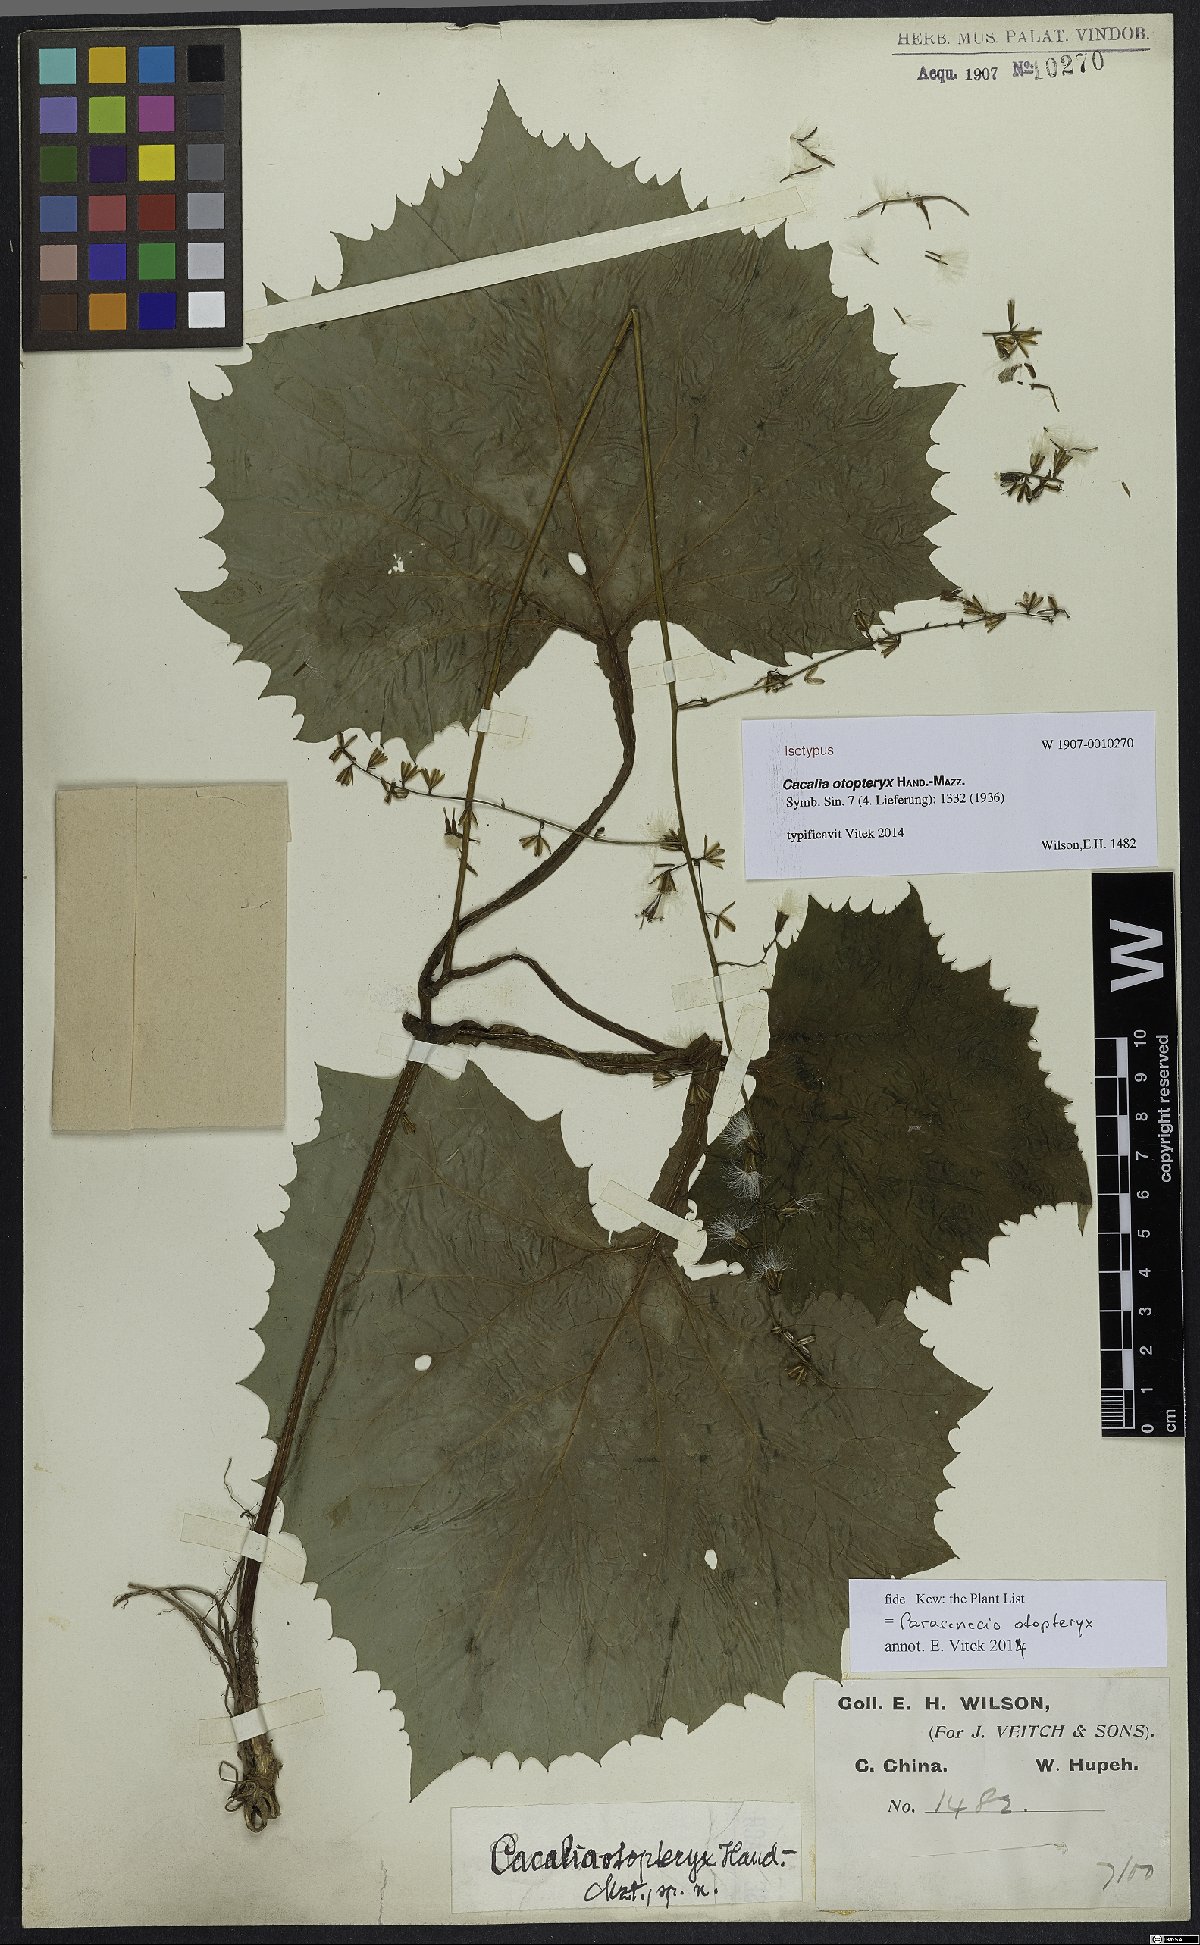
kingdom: Plantae
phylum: Tracheophyta
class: Magnoliopsida
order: Asterales
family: Asteraceae
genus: Parasenecio
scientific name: Parasenecio otopteryx
